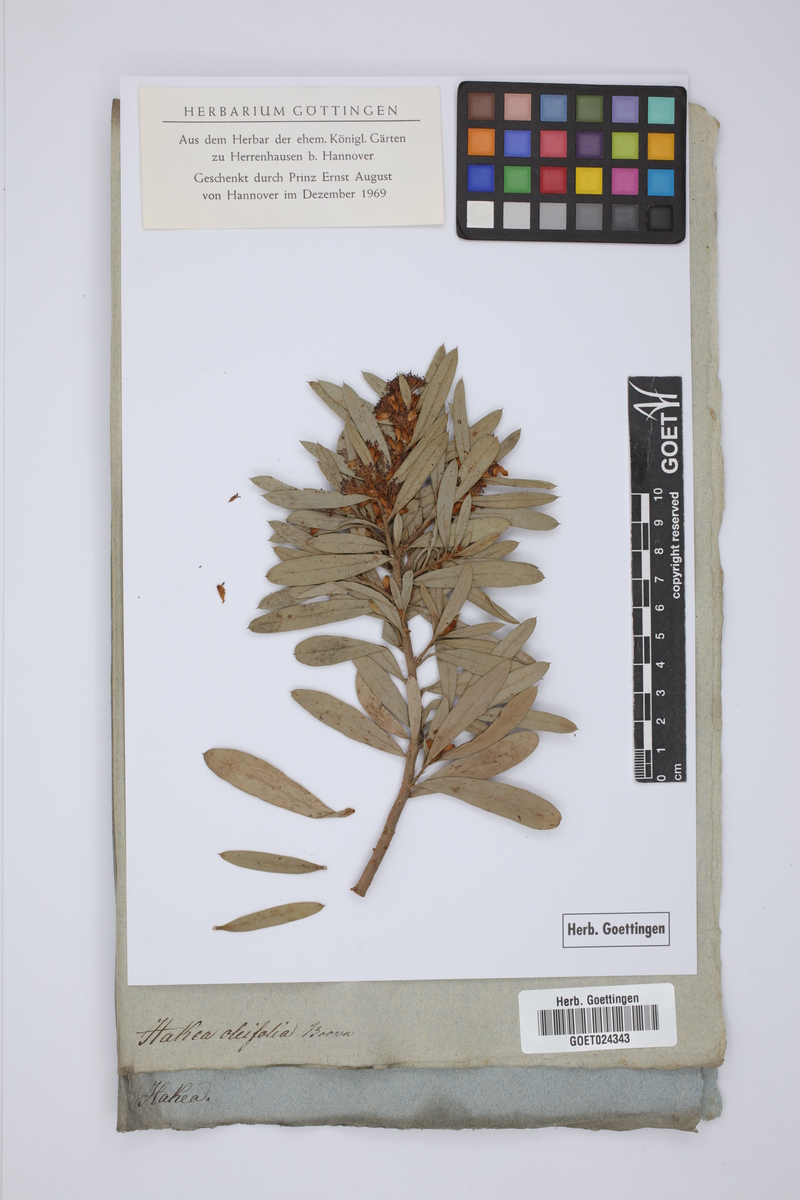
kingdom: Plantae
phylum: Tracheophyta
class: Magnoliopsida
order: Proteales
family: Proteaceae
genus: Hakea
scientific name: Hakea oleifolia
